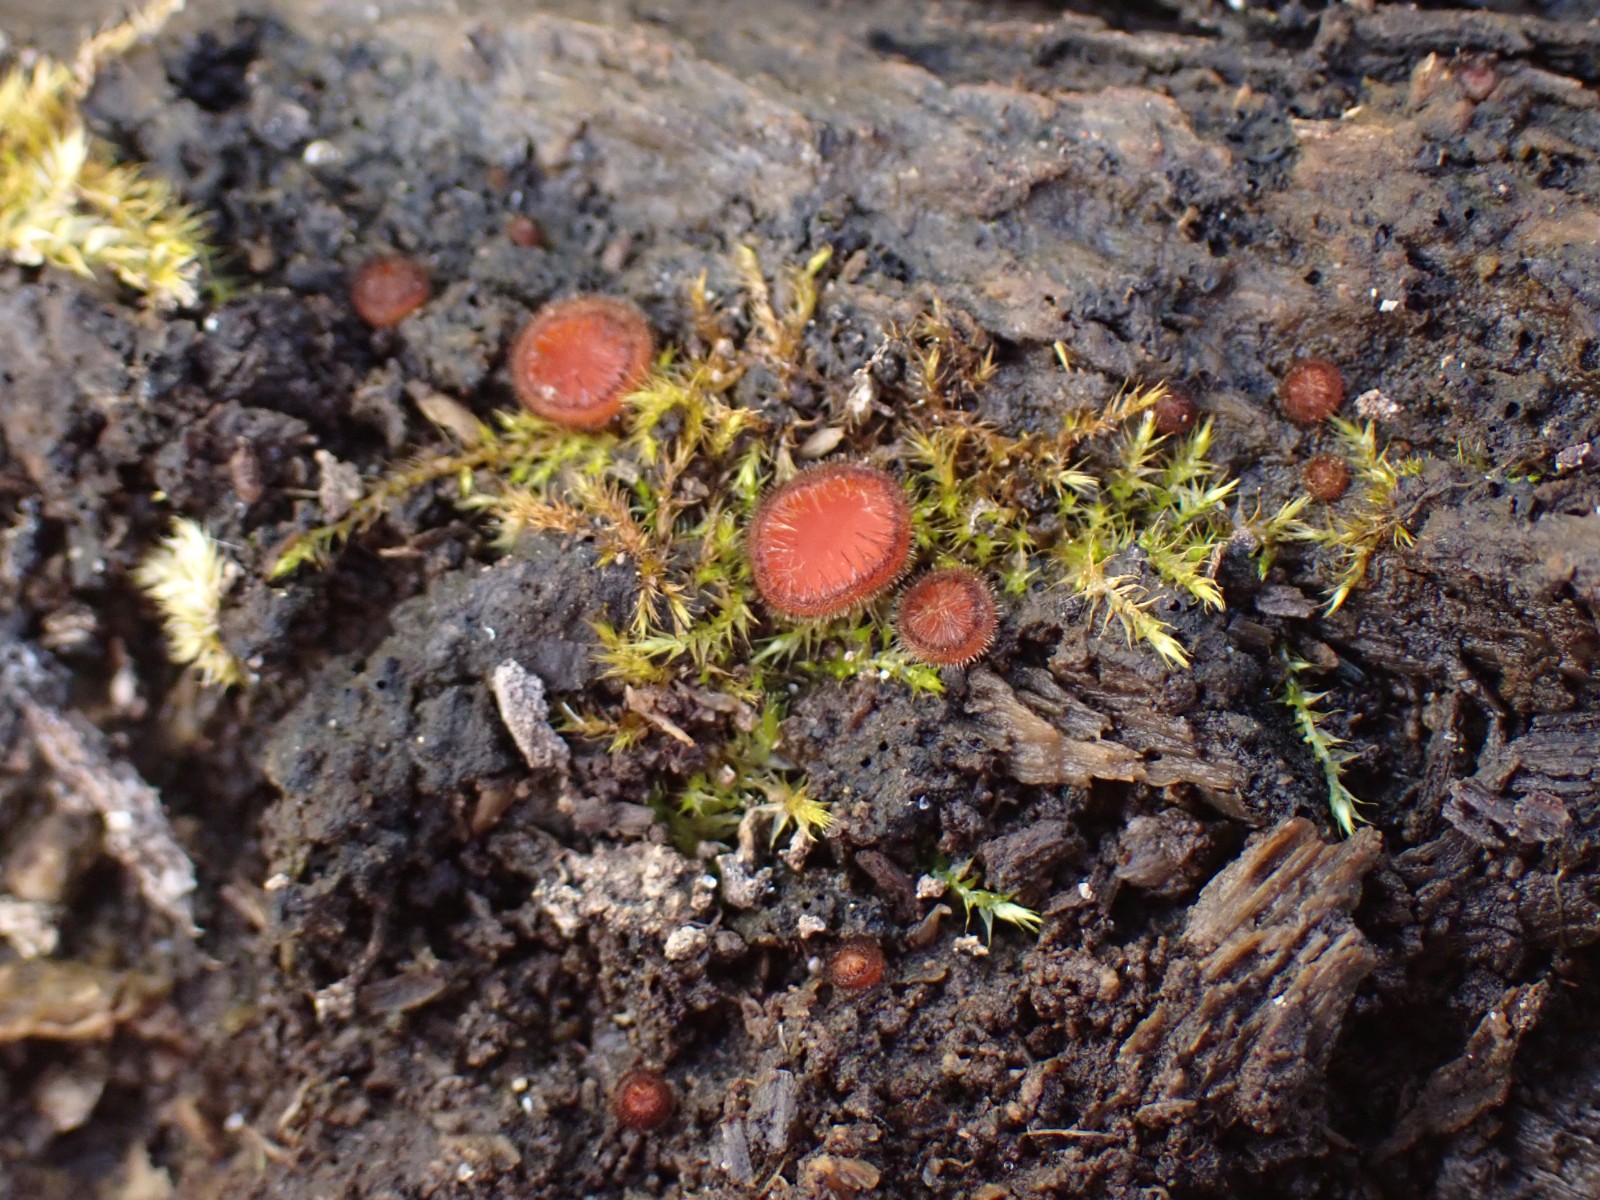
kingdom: Fungi
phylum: Ascomycota
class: Pezizomycetes
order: Pezizales
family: Pyronemataceae
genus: Scutellinia
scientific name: Scutellinia scutellata
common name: frynset skjoldbæger
